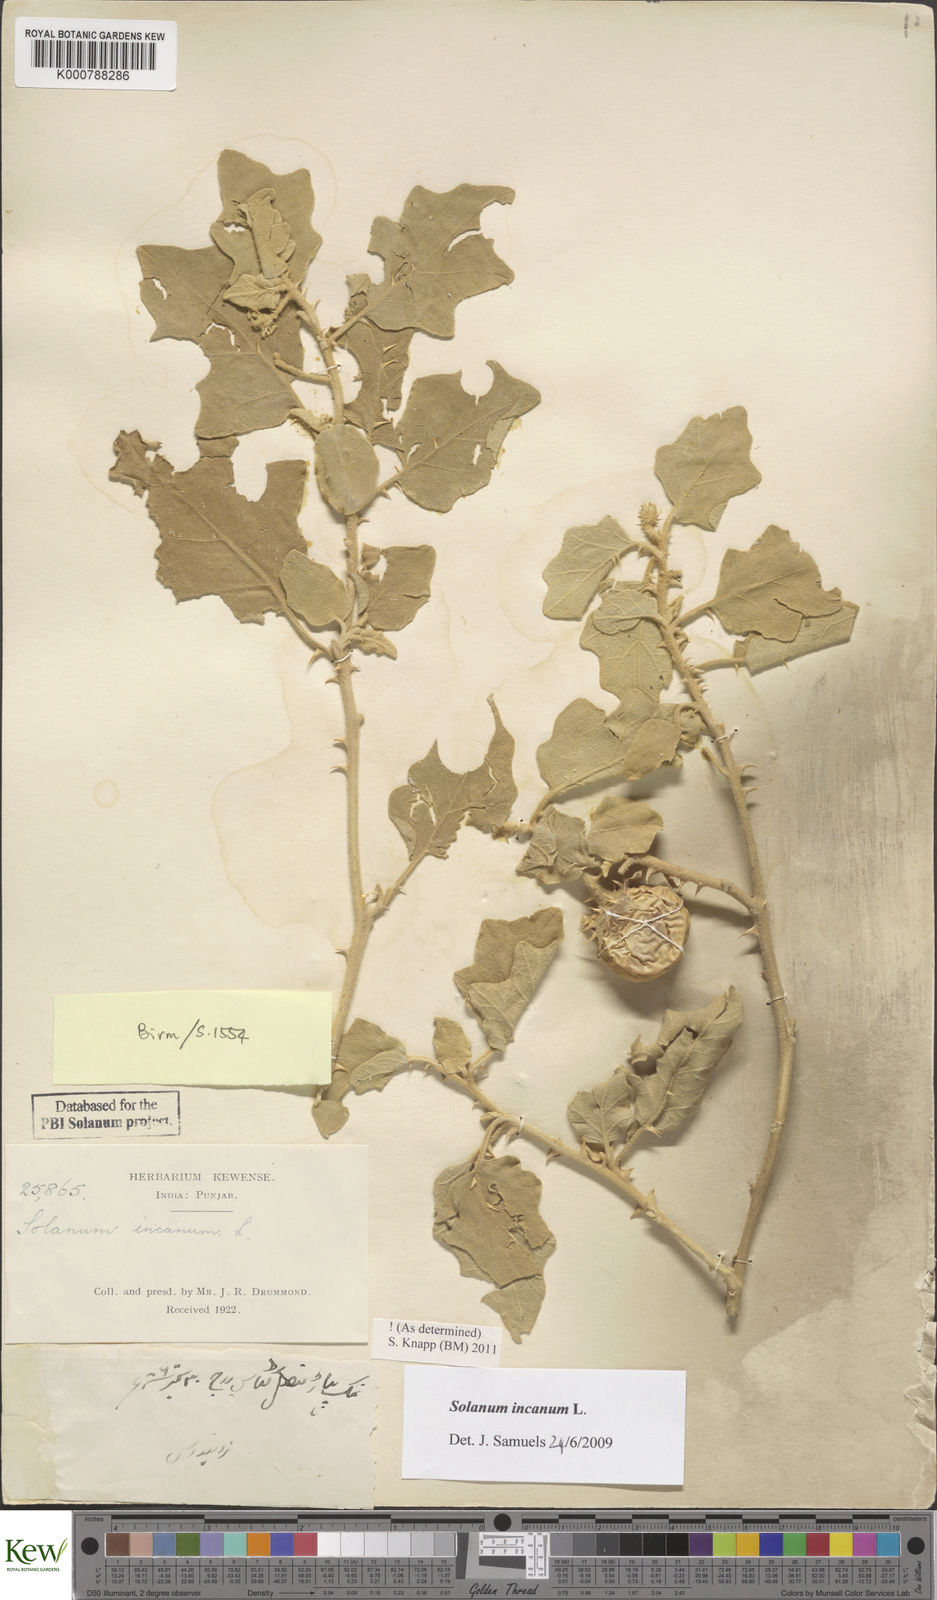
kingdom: Plantae
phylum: Tracheophyta
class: Magnoliopsida
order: Solanales
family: Solanaceae
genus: Solanum
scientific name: Solanum incanum
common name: Bitter apple
